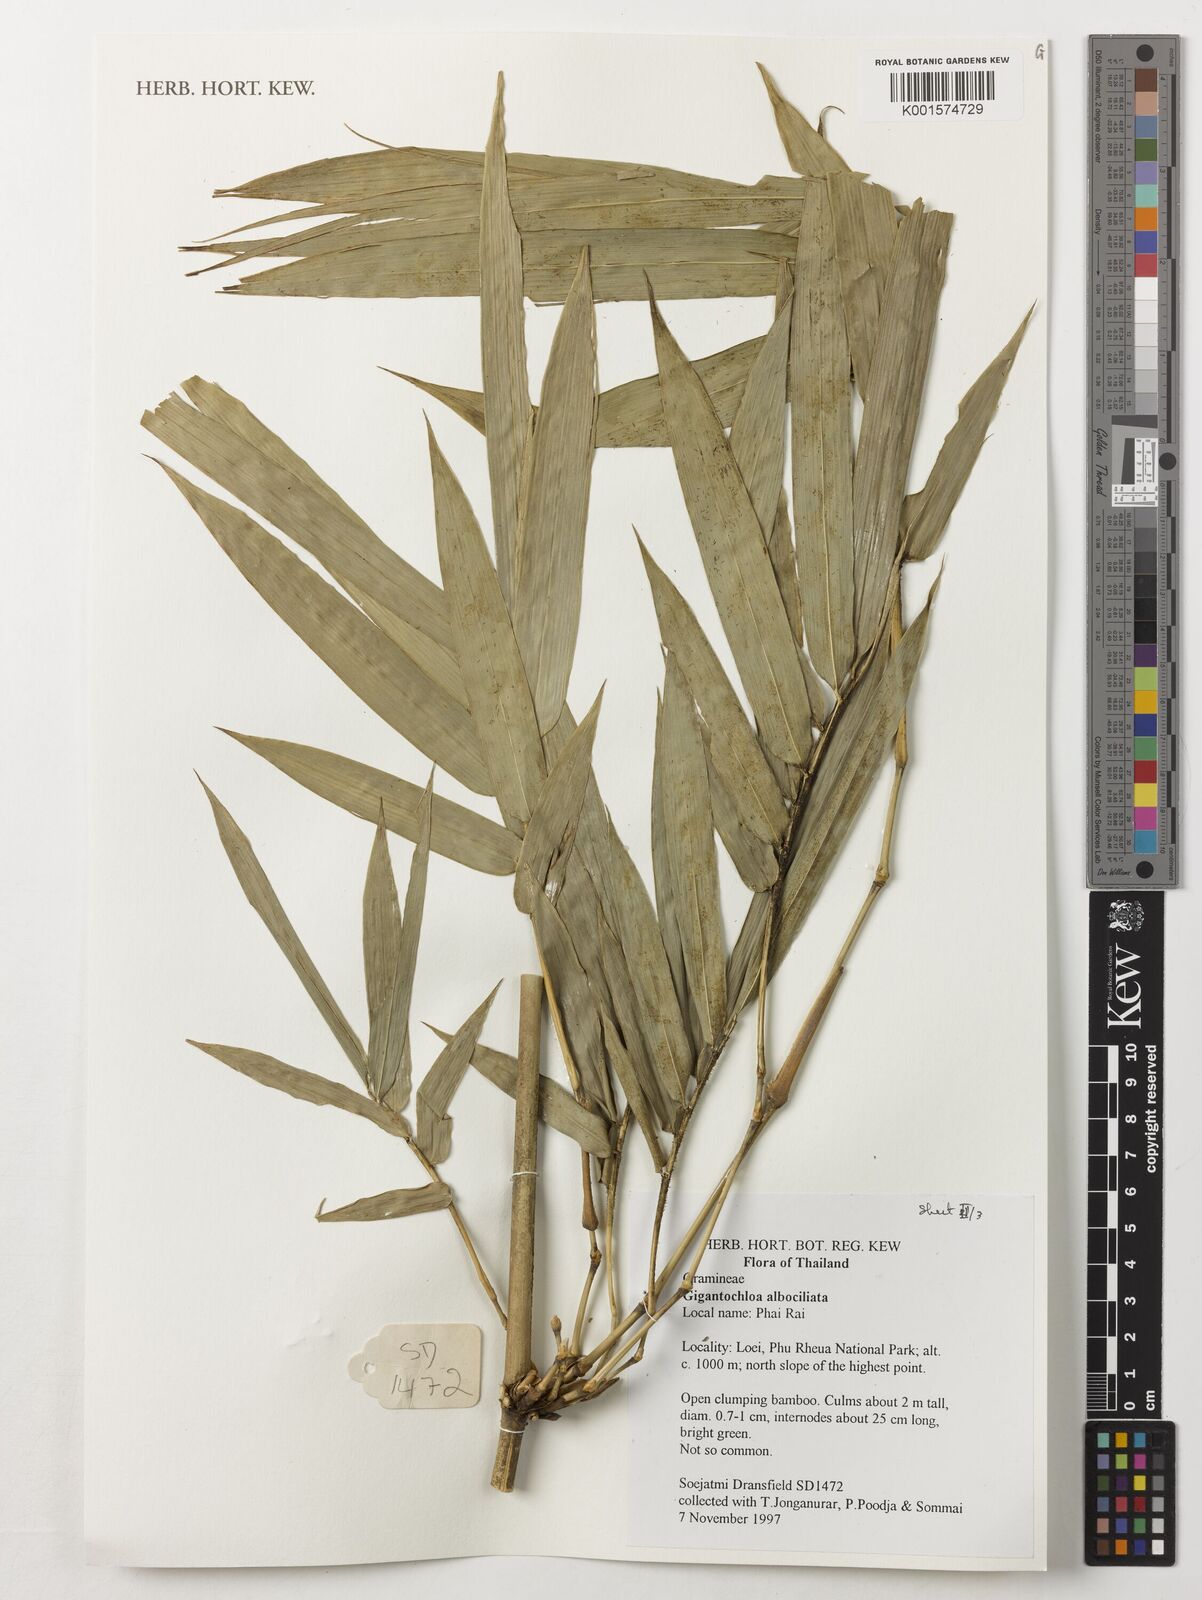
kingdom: Plantae
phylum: Tracheophyta
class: Liliopsida
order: Poales
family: Poaceae
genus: Gigantochloa
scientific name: Gigantochloa albociliata
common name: White-fringe gigantochloa
